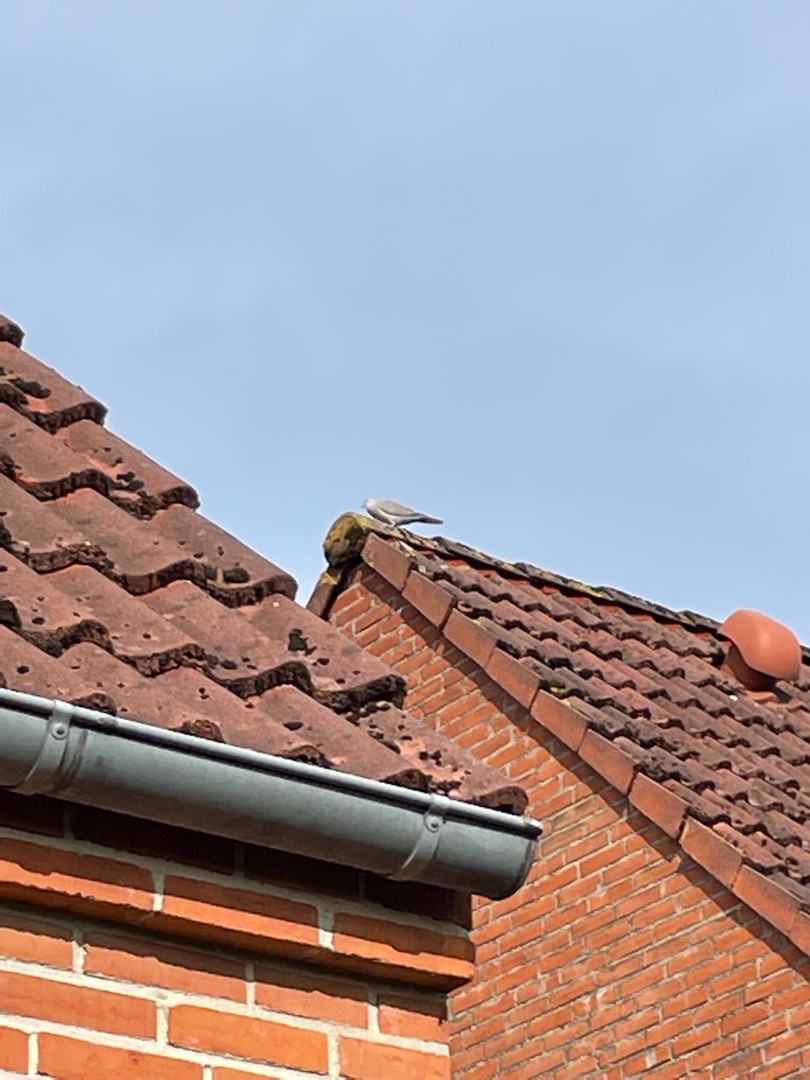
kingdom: Animalia
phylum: Chordata
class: Aves
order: Columbiformes
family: Columbidae
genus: Streptopelia
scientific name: Streptopelia decaocto
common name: Tyrkerdue
